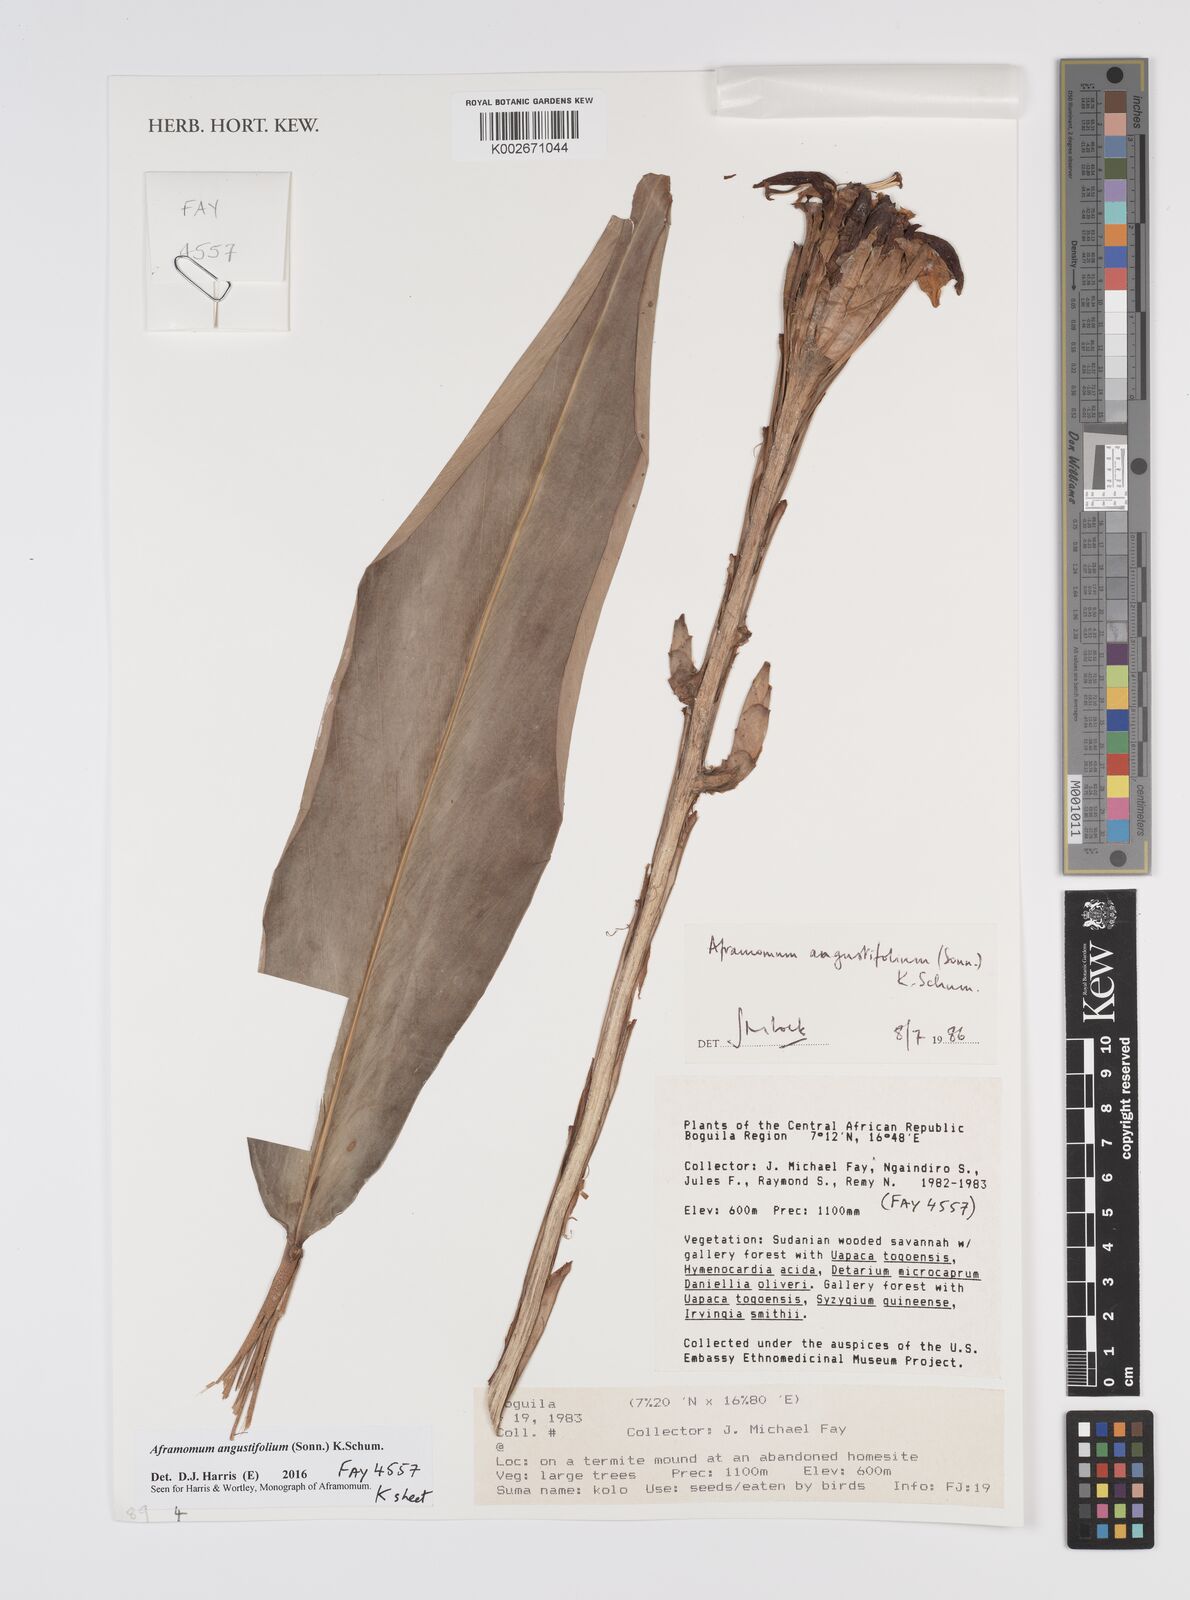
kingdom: Plantae
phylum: Tracheophyta
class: Liliopsida
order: Zingiberales
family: Zingiberaceae
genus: Aframomum
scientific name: Aframomum angustifolium
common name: Guinea grains
